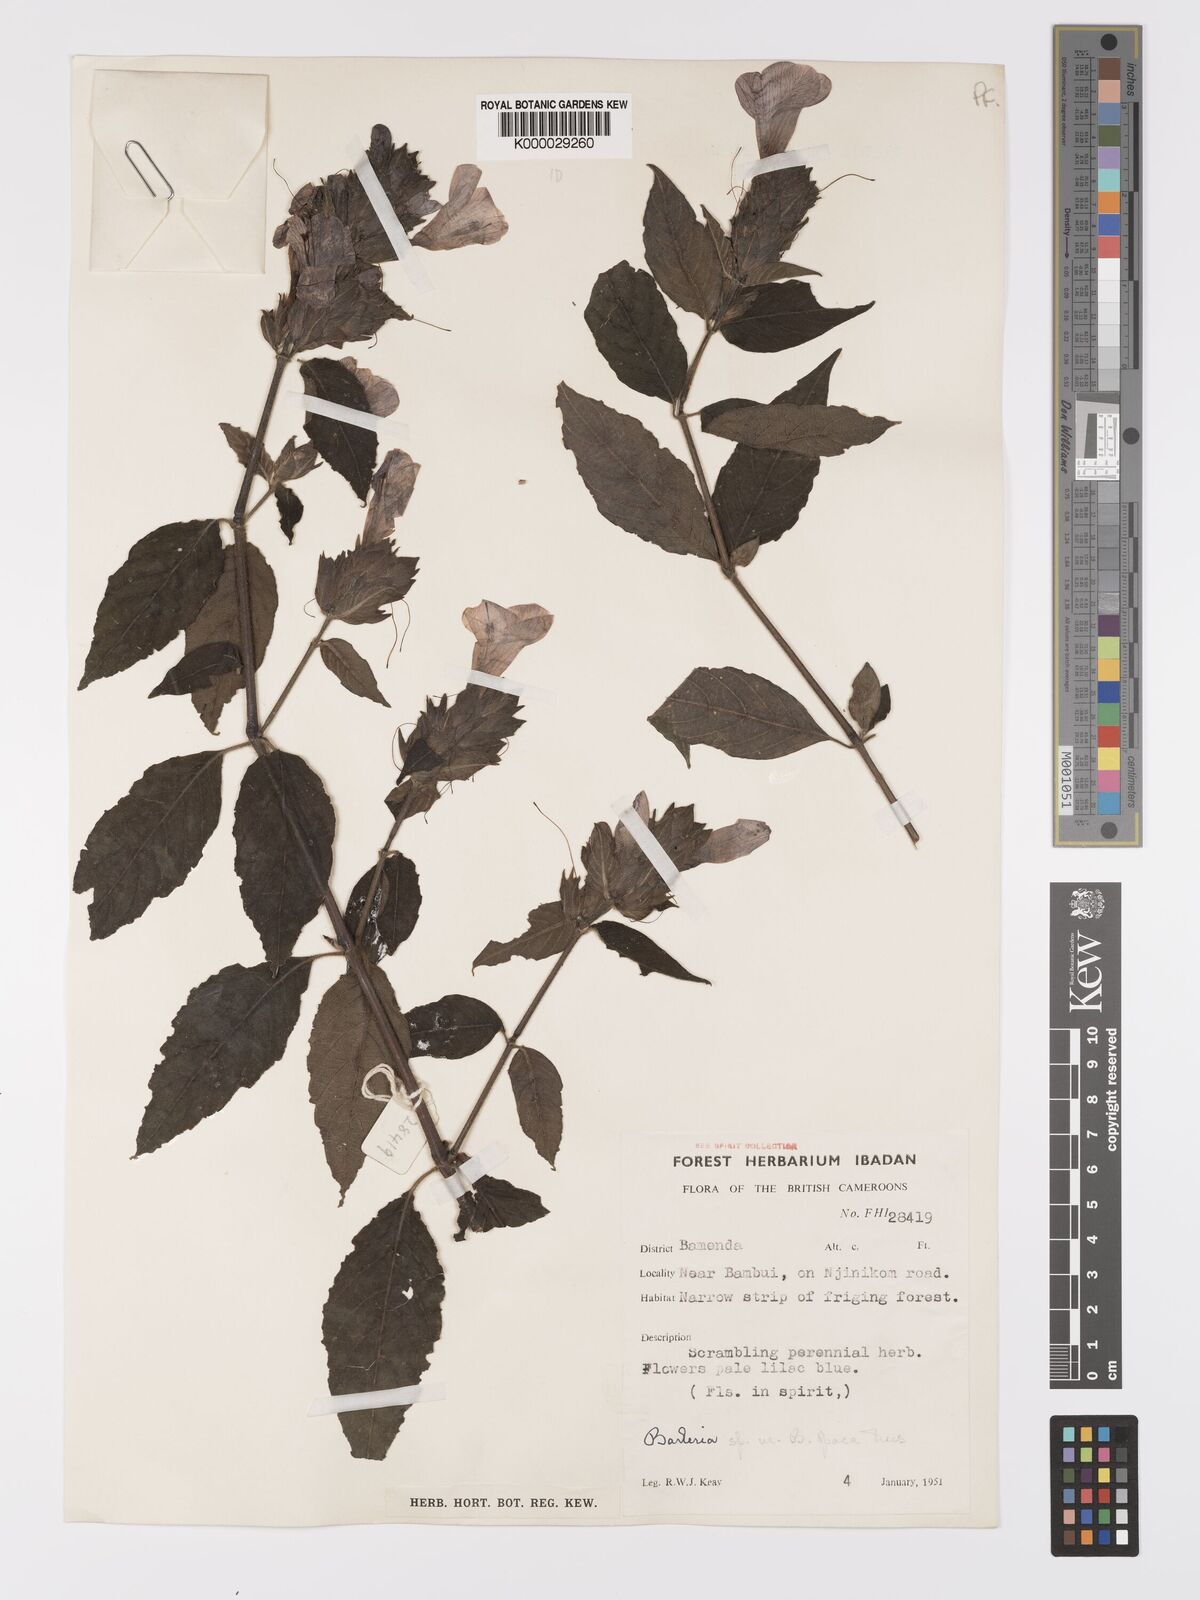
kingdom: Plantae
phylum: Tracheophyta
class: Magnoliopsida
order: Lamiales
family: Acanthaceae
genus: Barleria
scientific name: Barleria opaca
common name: Kwahu
